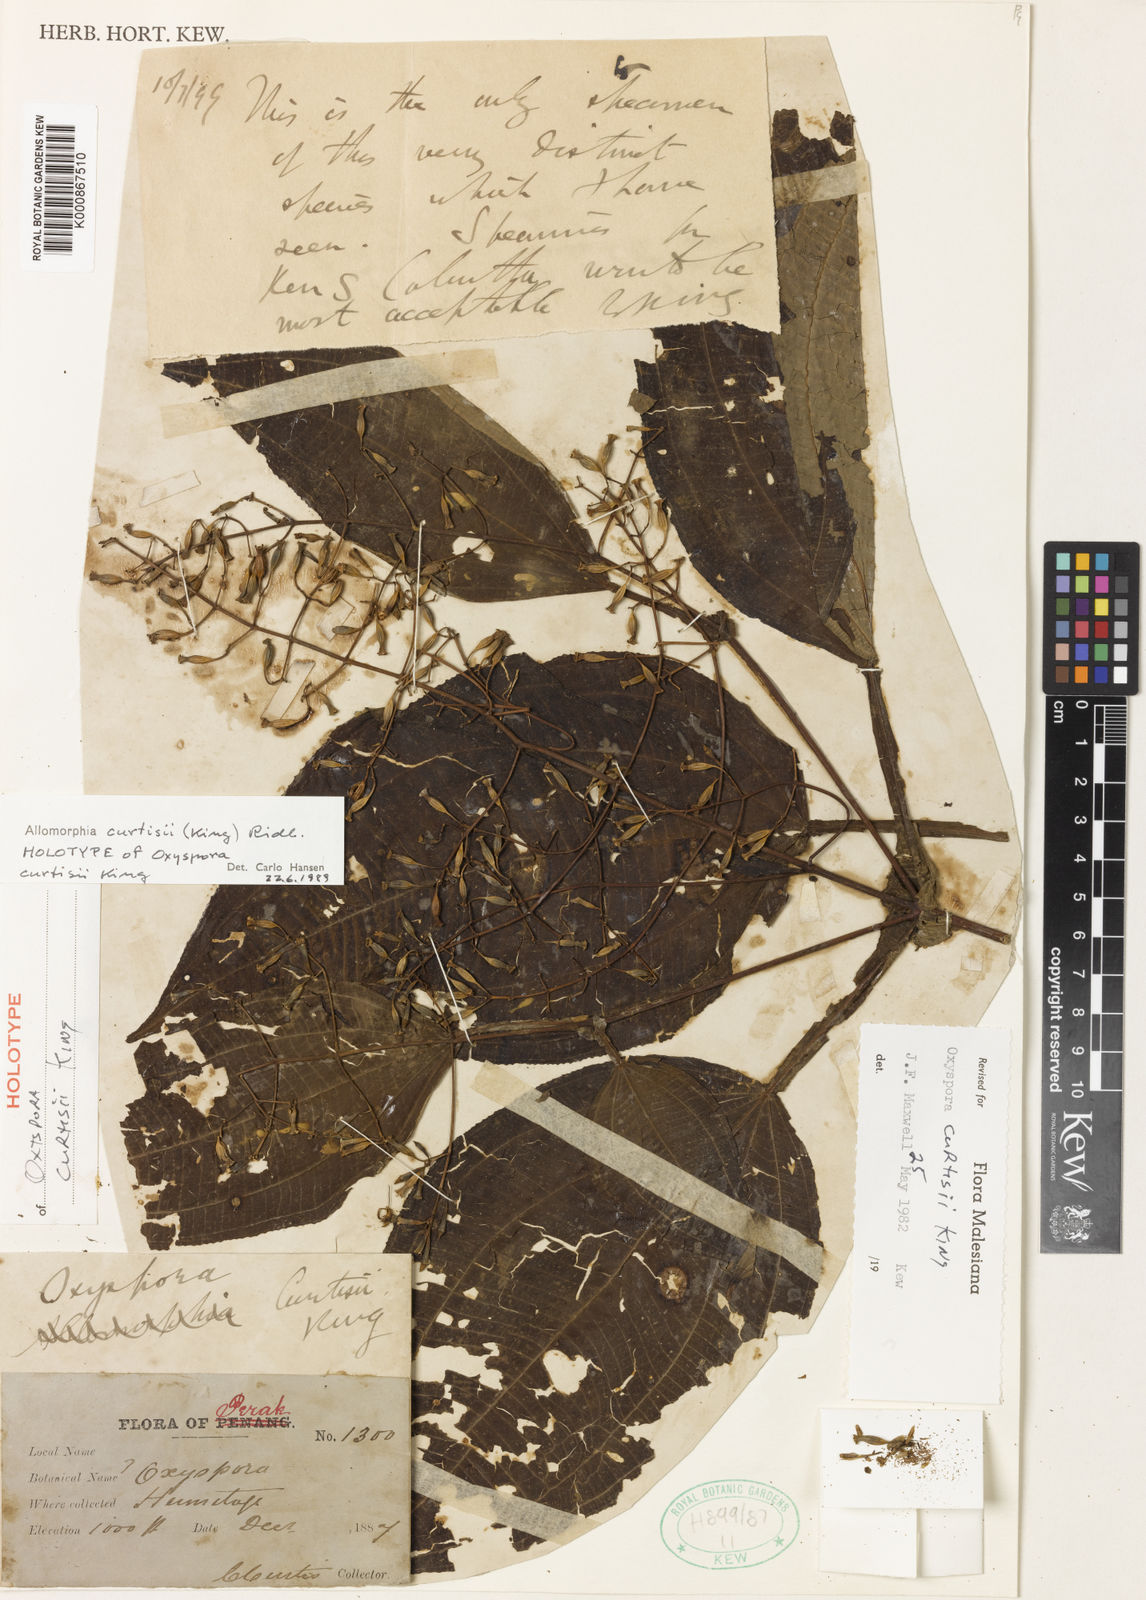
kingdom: Plantae
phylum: Tracheophyta
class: Magnoliopsida
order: Myrtales
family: Melastomataceae
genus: Allomorphia
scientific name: Allomorphia curtisii
